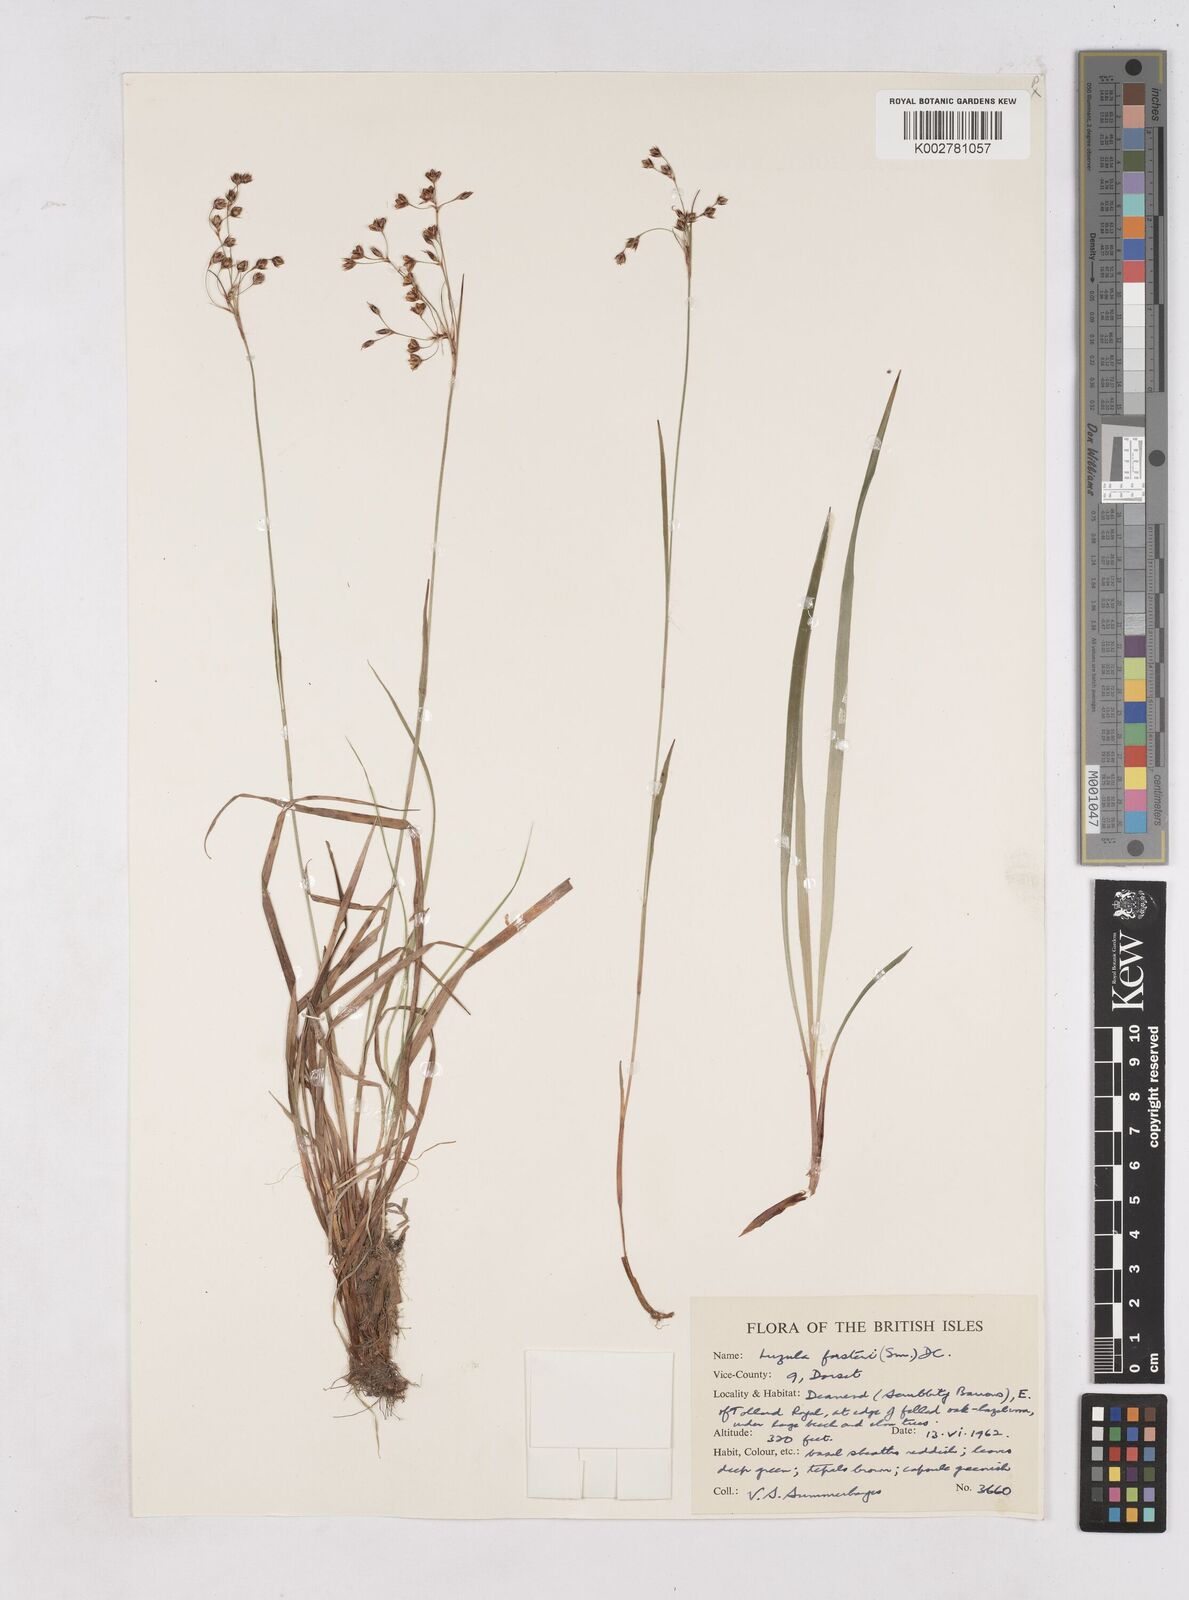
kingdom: Plantae
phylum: Tracheophyta
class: Liliopsida
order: Poales
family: Juncaceae
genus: Luzula
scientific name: Luzula forsteri
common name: Southern wood-rush
